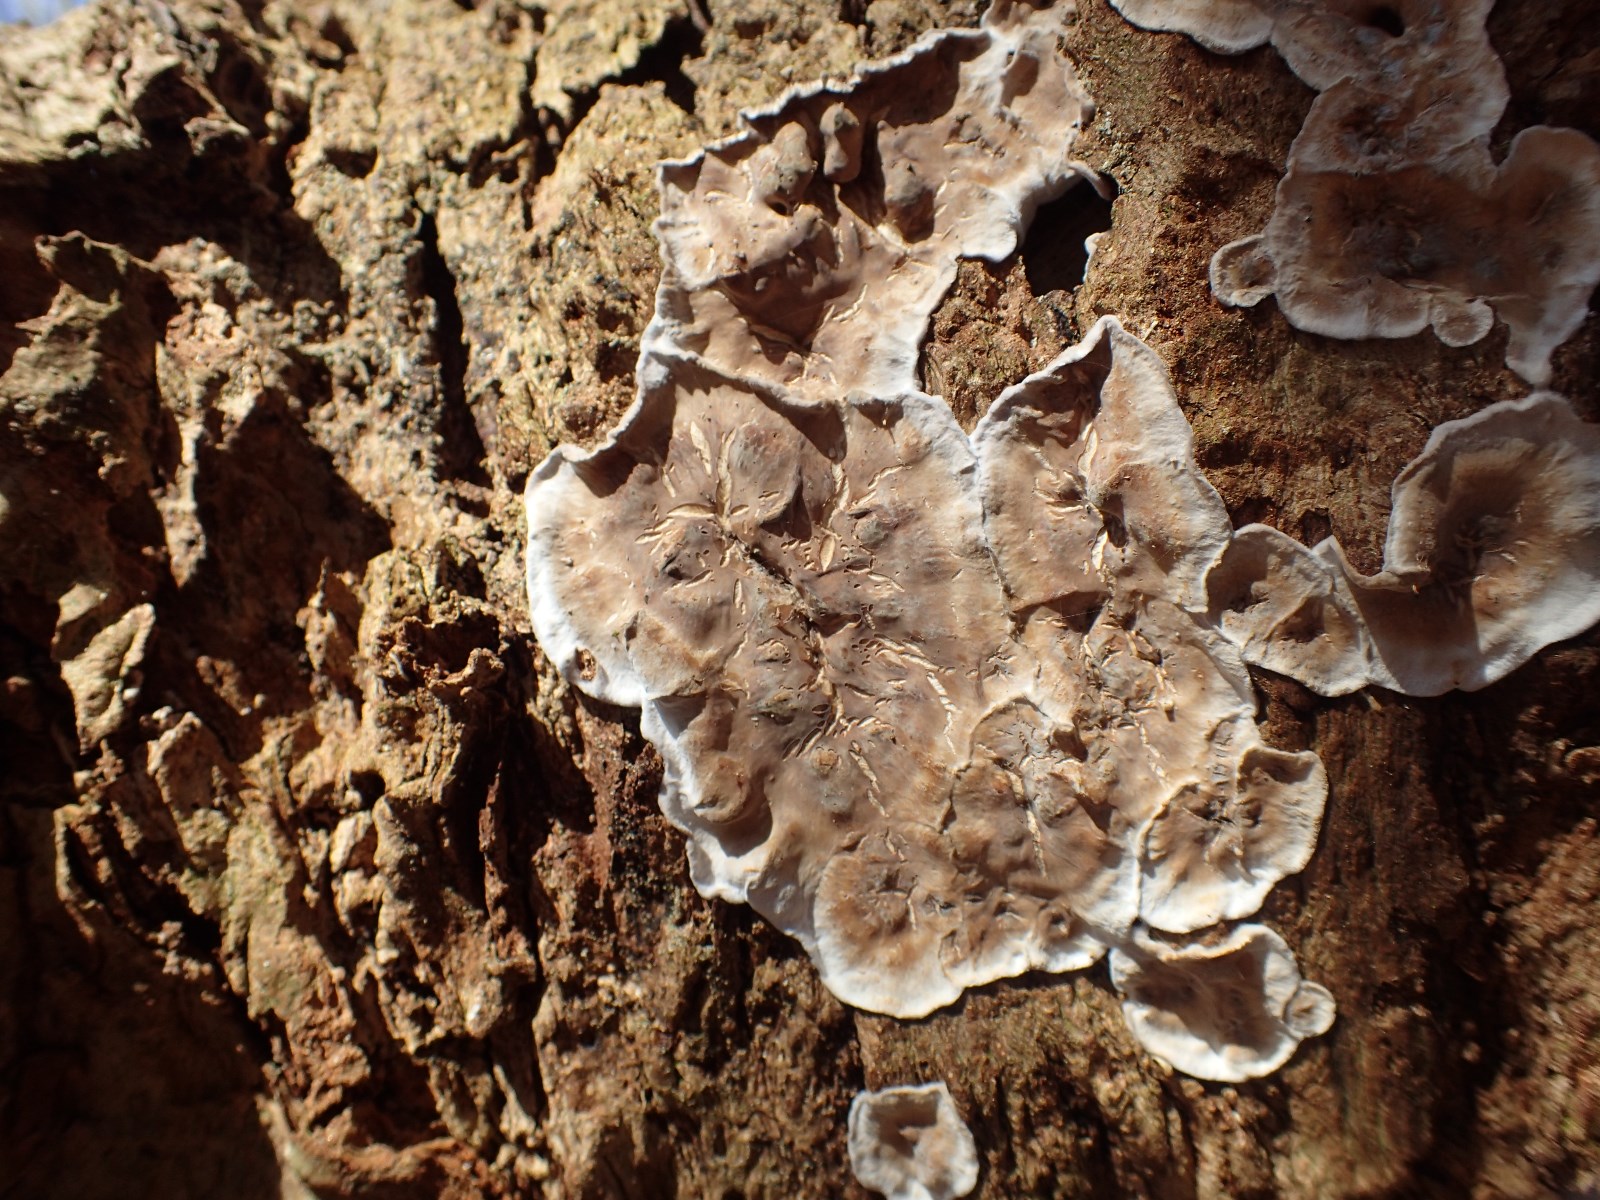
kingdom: Fungi
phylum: Basidiomycota
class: Agaricomycetes
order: Agaricales
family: Physalacriaceae
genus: Cylindrobasidium
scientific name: Cylindrobasidium evolvens
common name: sprækkehinde
